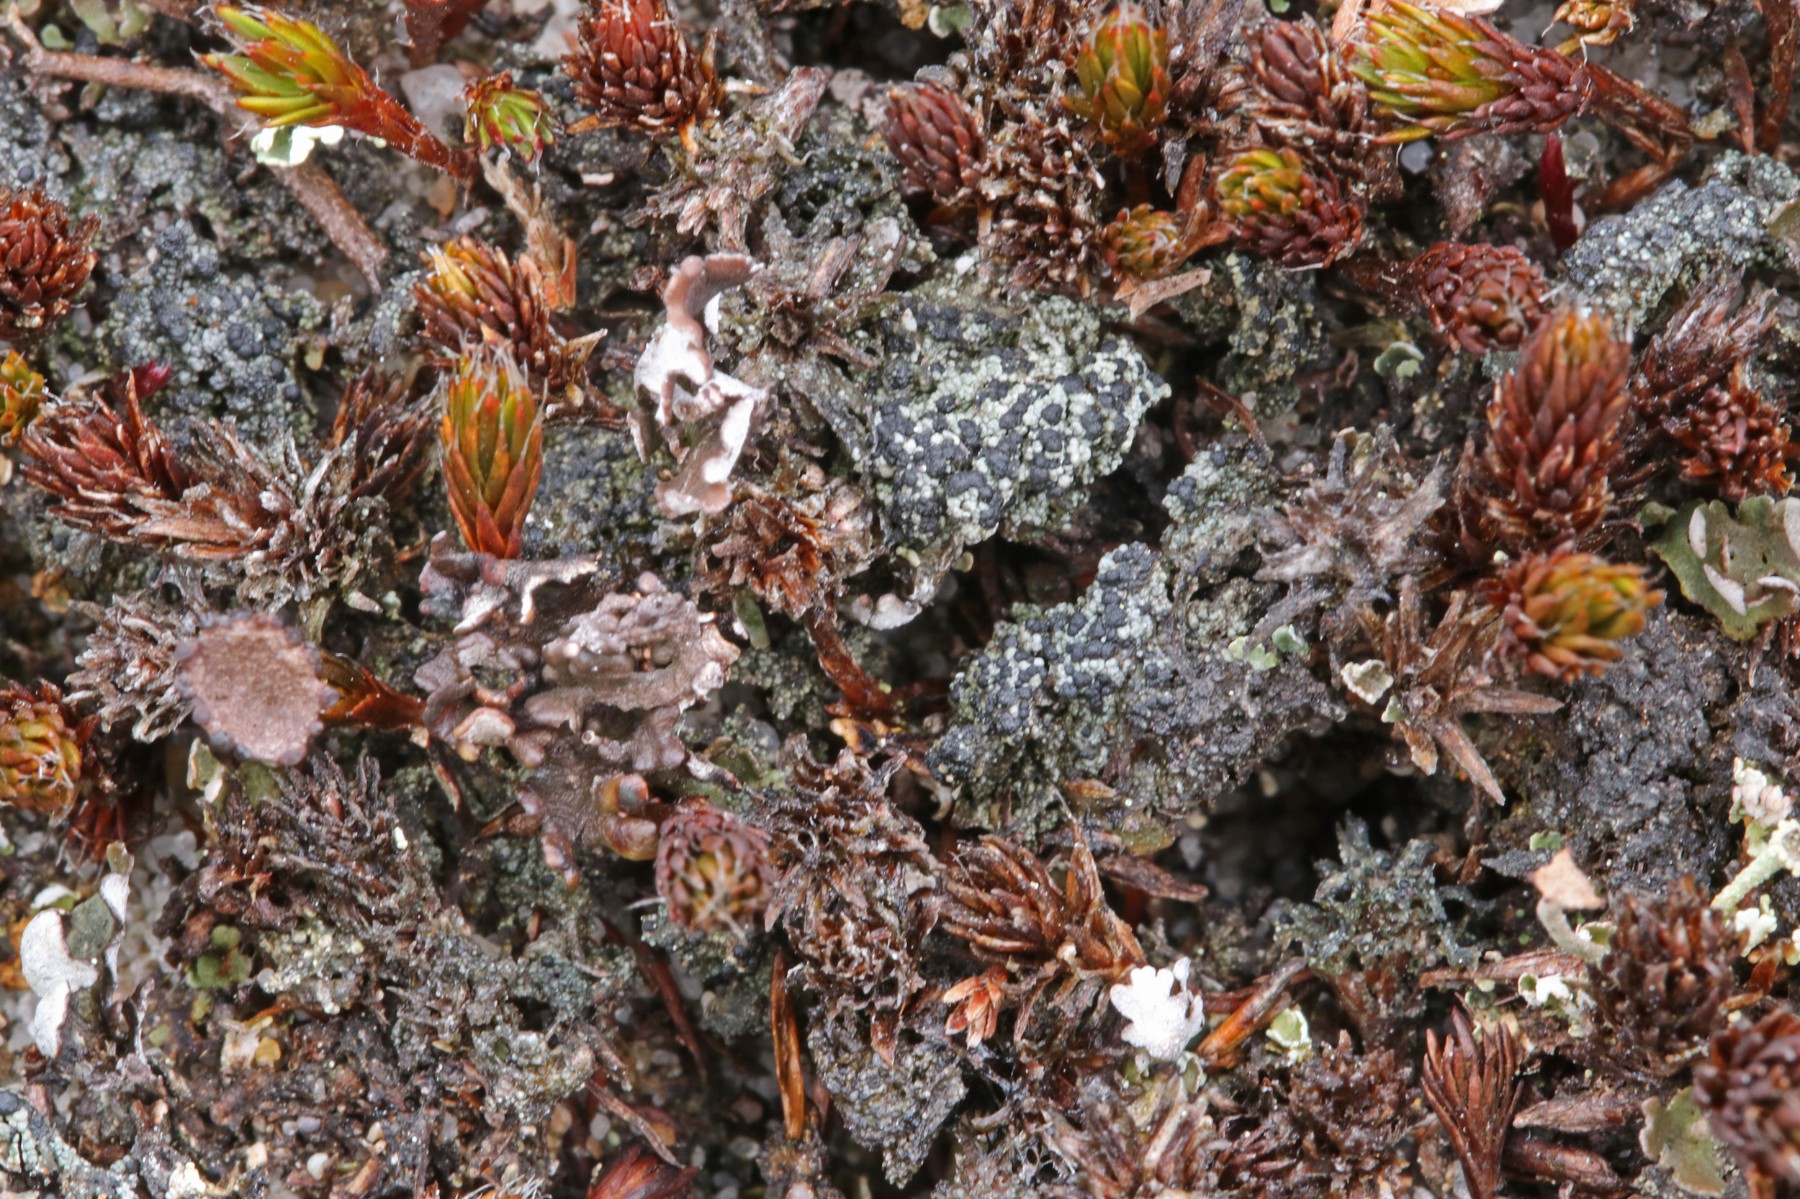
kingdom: Fungi
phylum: Ascomycota
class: Lecanoromycetes
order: Lecanorales
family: Byssolomataceae
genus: Micarea
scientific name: Micarea lignaria
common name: tørve-knaplav
